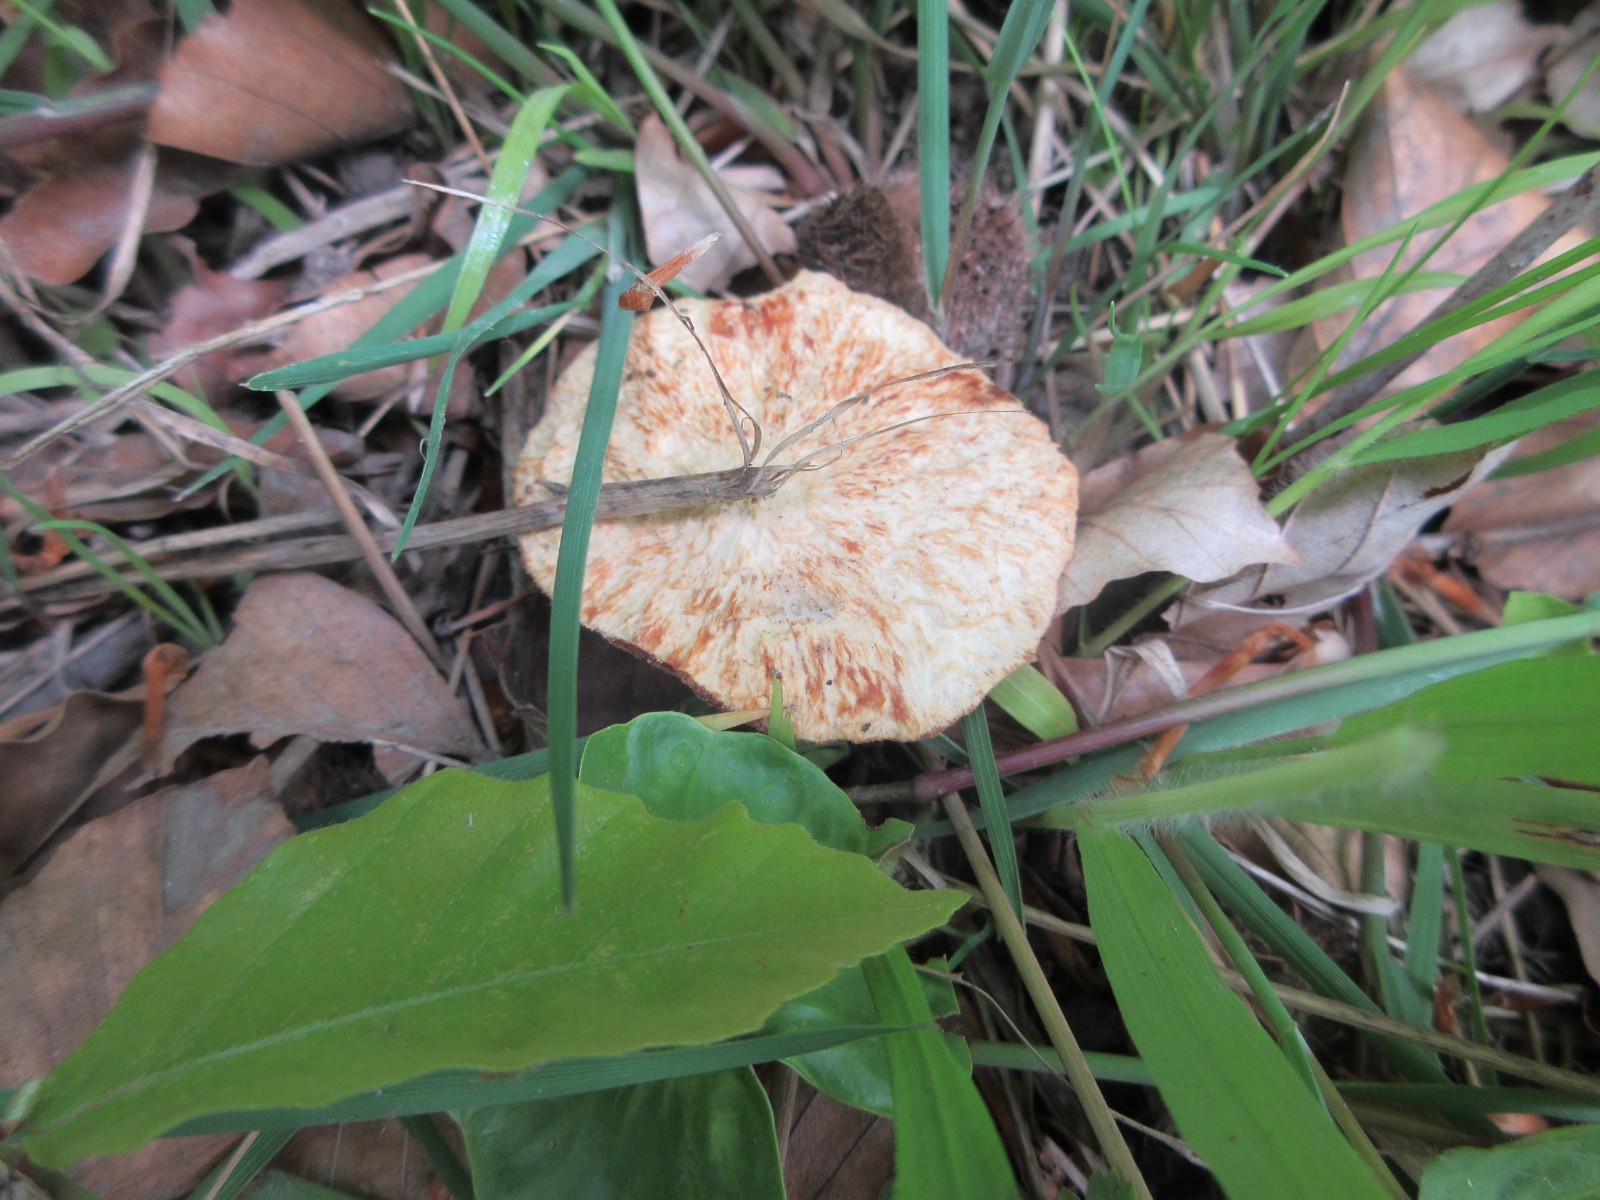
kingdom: Fungi
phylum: Basidiomycota
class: Agaricomycetes
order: Polyporales
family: Polyporaceae
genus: Cerioporus
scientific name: Cerioporus varius
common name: foranderlig stilkporesvamp
